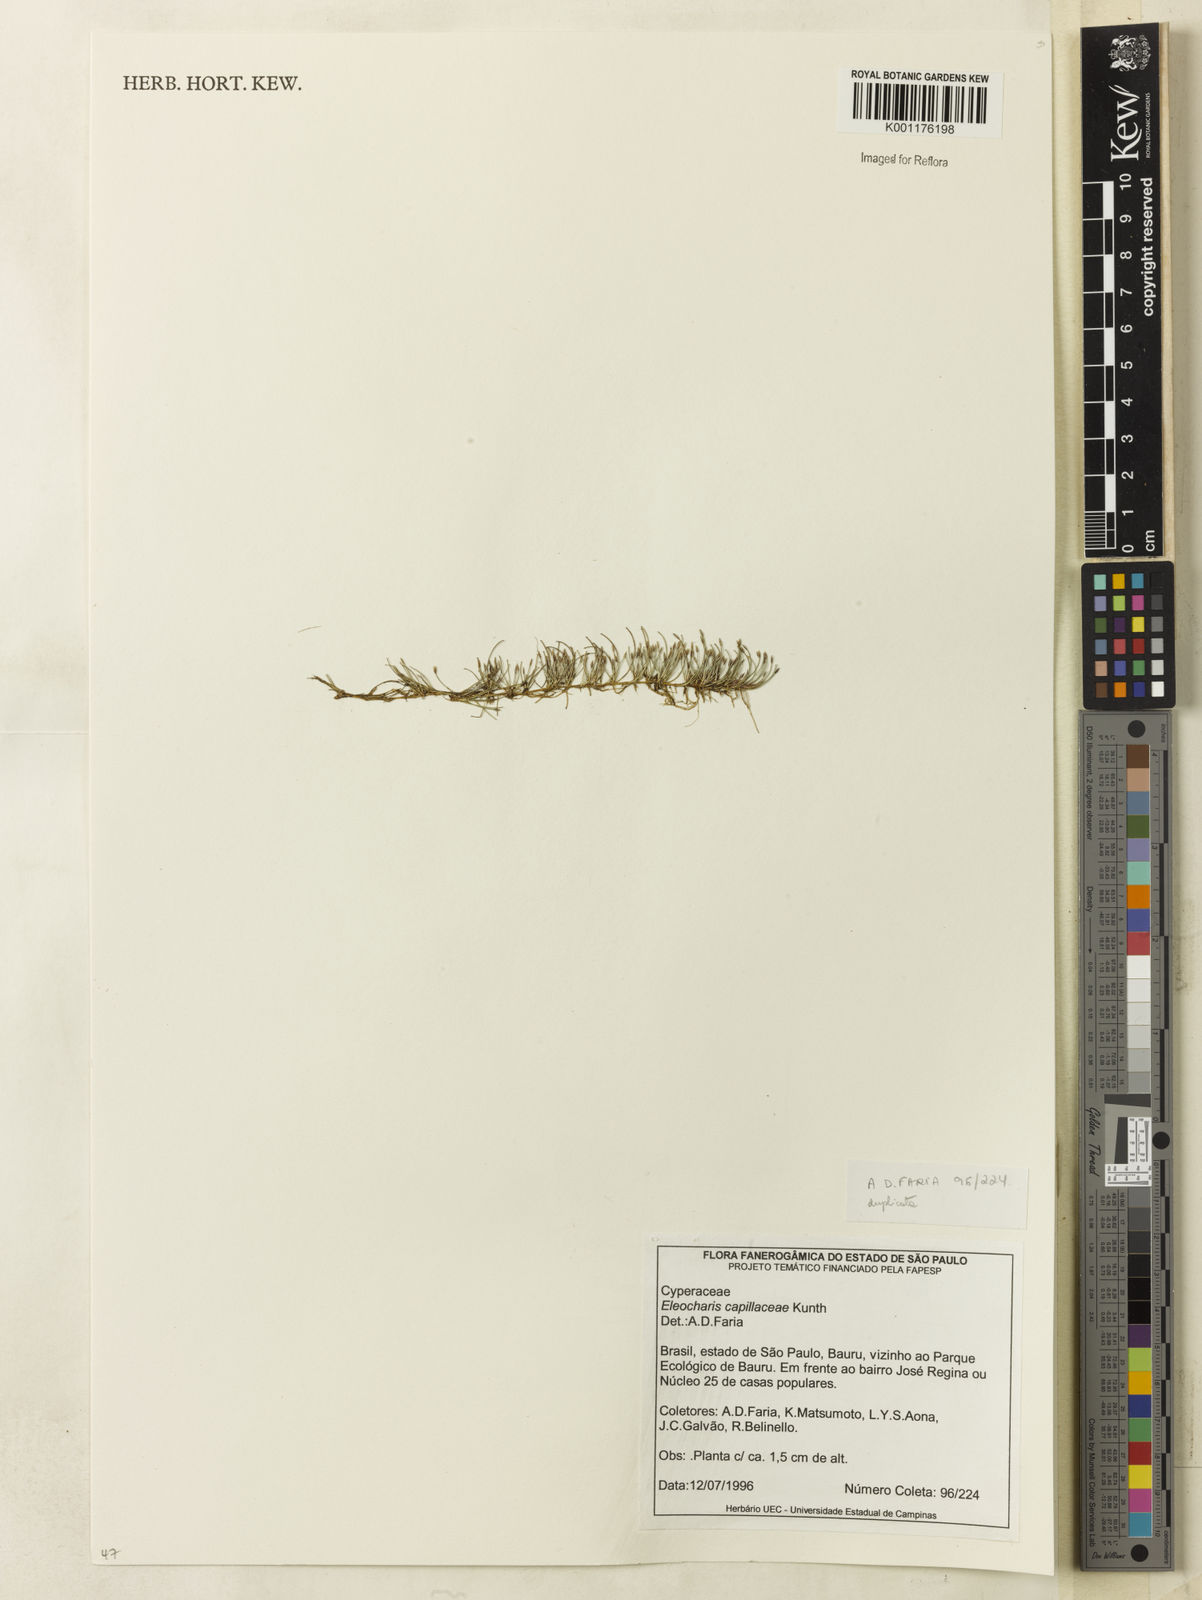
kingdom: Plantae
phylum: Tracheophyta
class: Liliopsida
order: Poales
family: Cyperaceae
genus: Eleocharis
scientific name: Eleocharis capillacea
